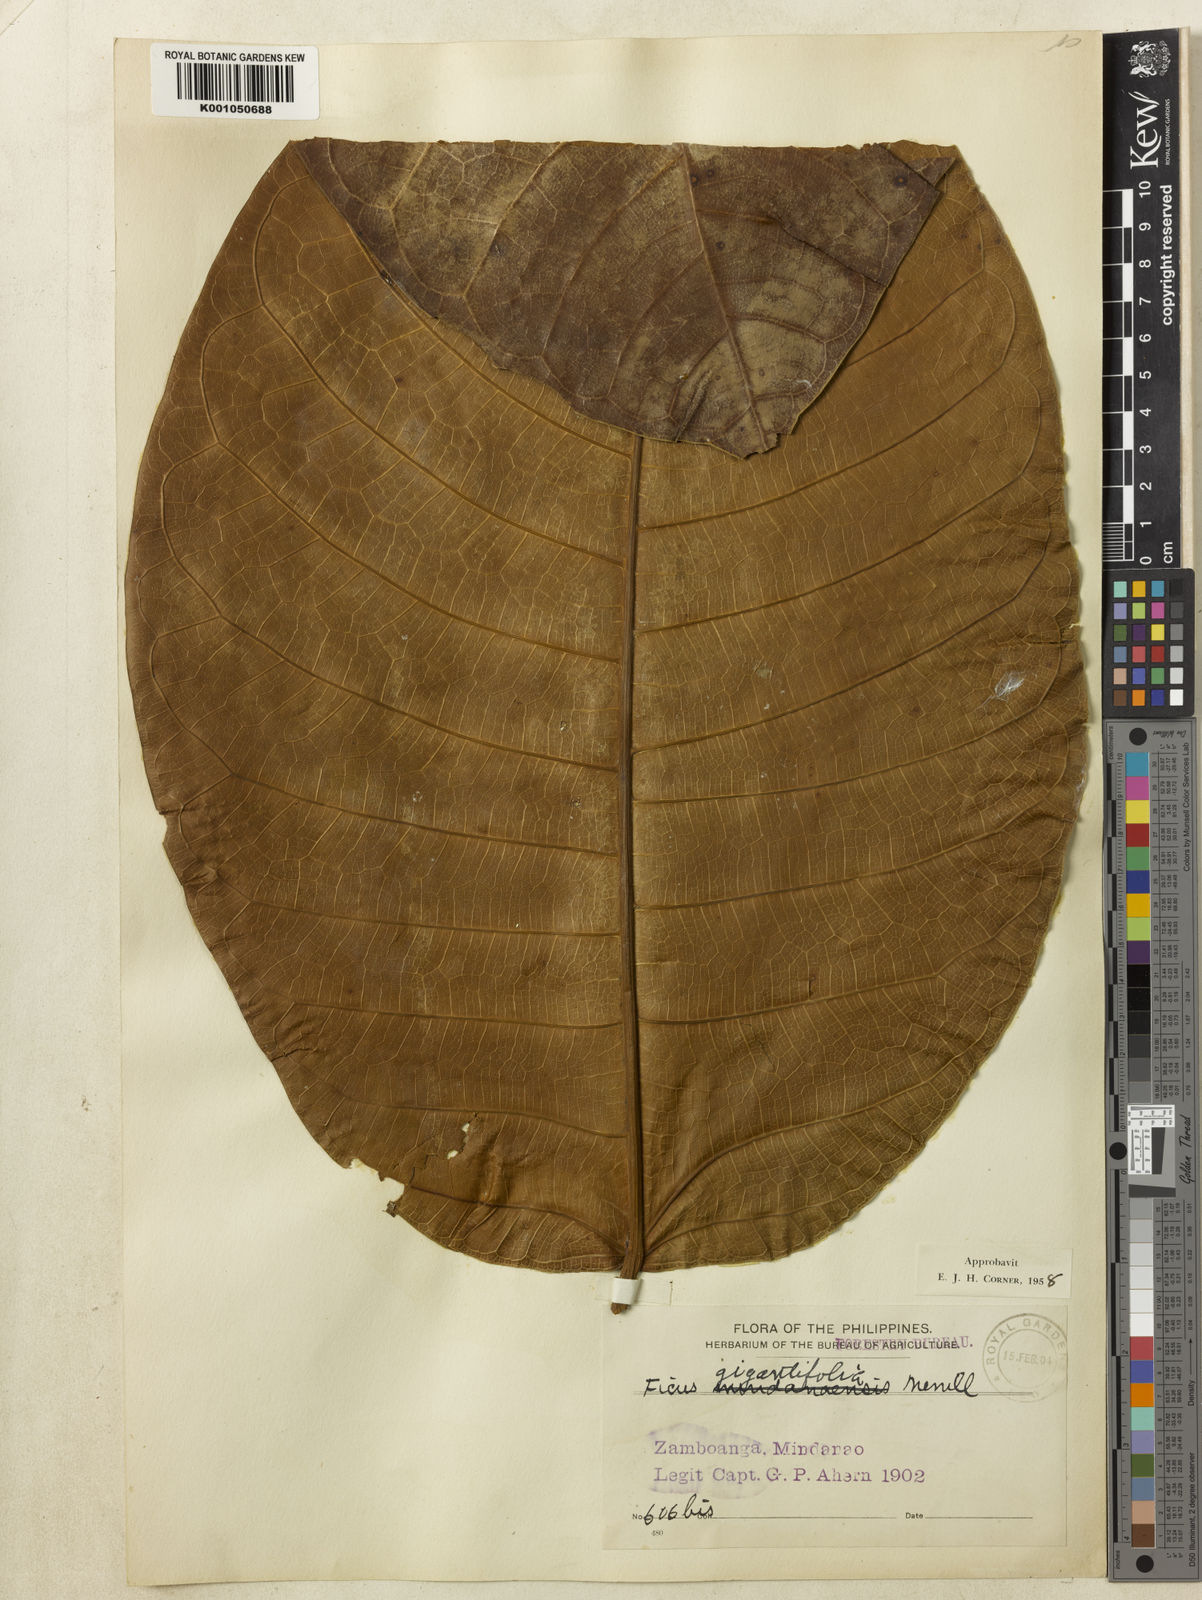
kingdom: Plantae
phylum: Tracheophyta
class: Magnoliopsida
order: Rosales
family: Moraceae
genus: Ficus
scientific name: Ficus gigantifolia
